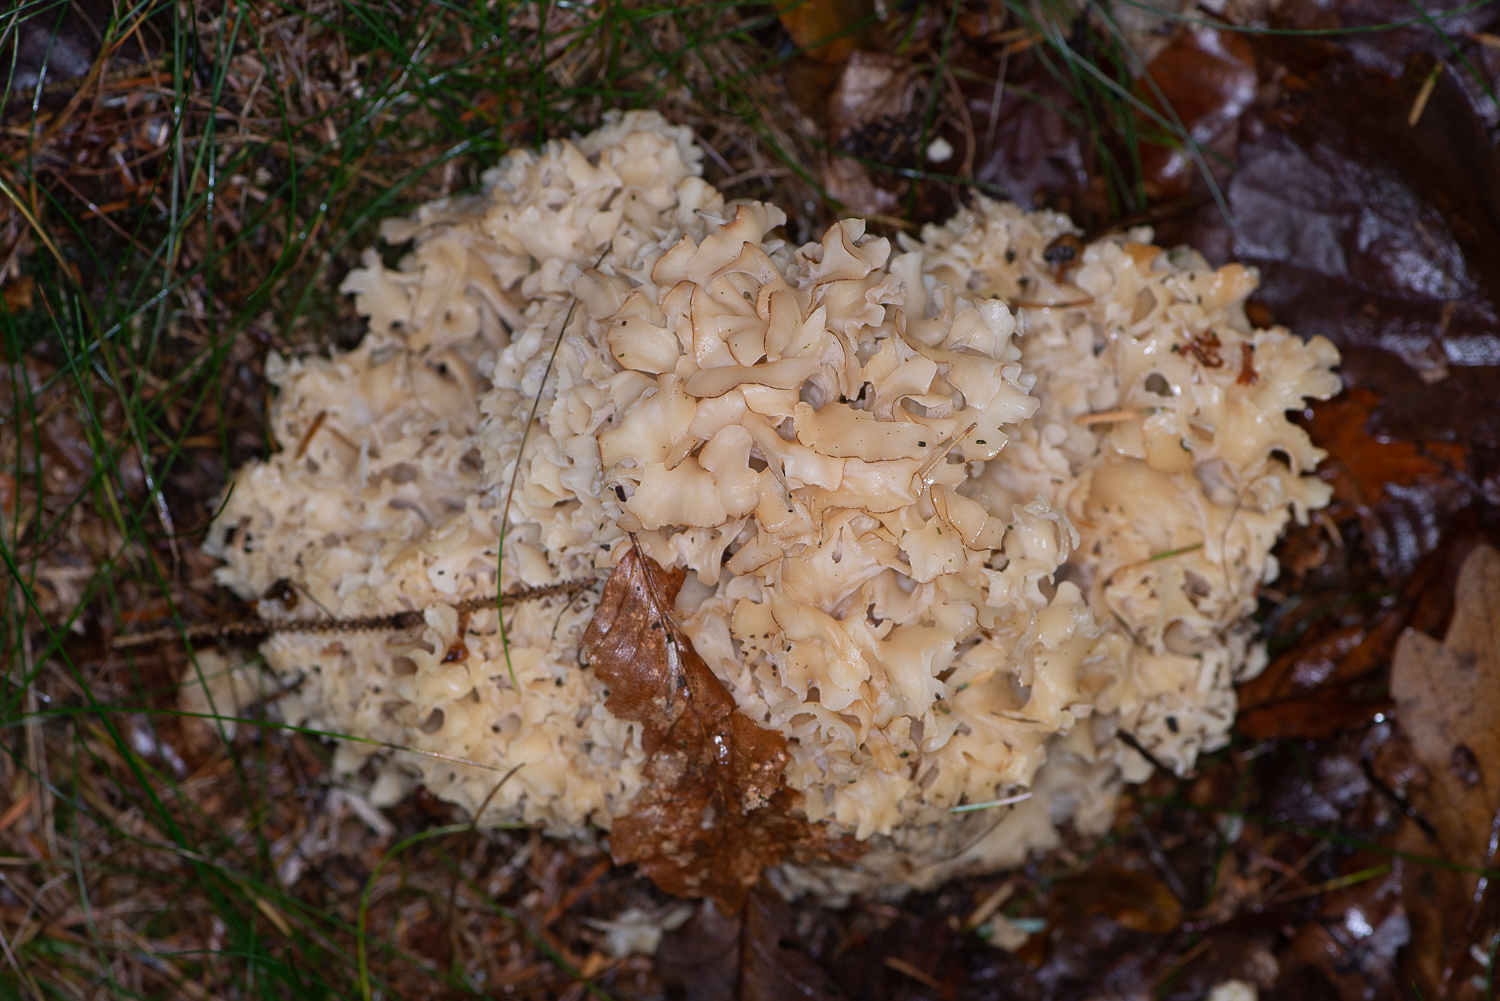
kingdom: Fungi
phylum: Basidiomycota
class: Agaricomycetes
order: Polyporales
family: Sparassidaceae
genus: Sparassis
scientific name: Sparassis crispa
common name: kruset blomkålssvamp
